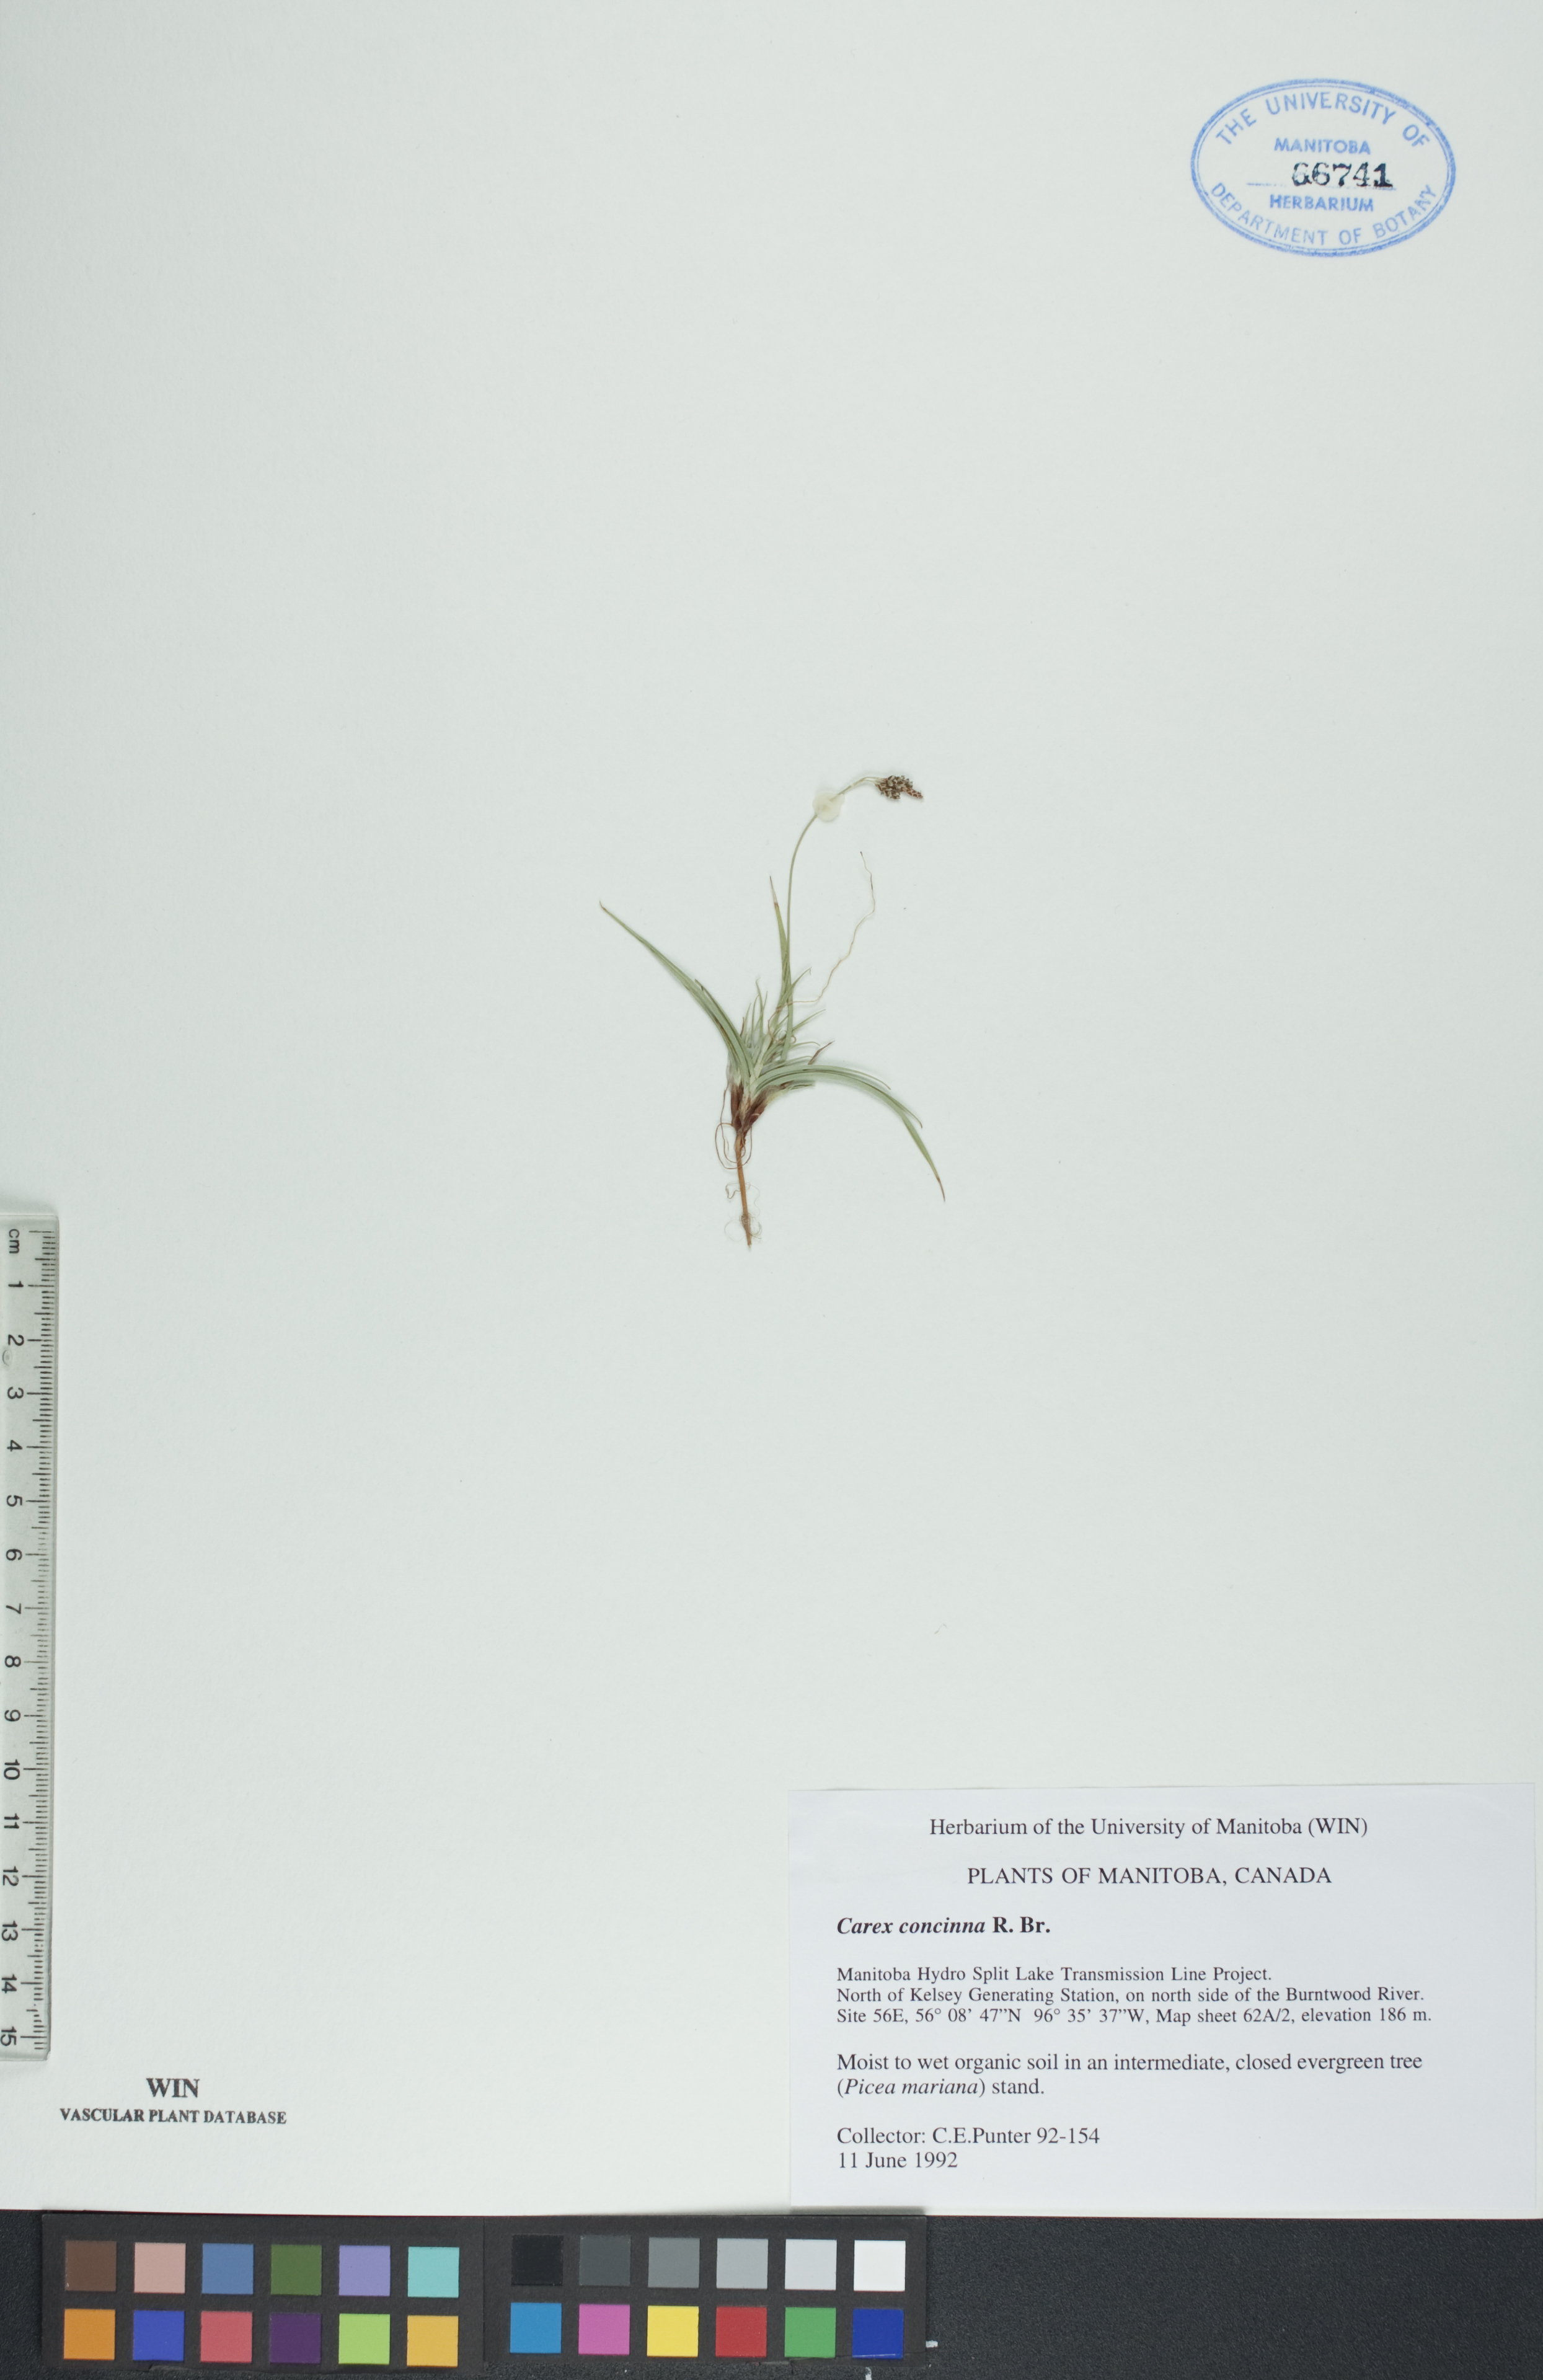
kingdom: Plantae
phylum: Tracheophyta
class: Liliopsida
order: Poales
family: Cyperaceae
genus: Carex
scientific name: Carex concinna
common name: Beautiful sedge
